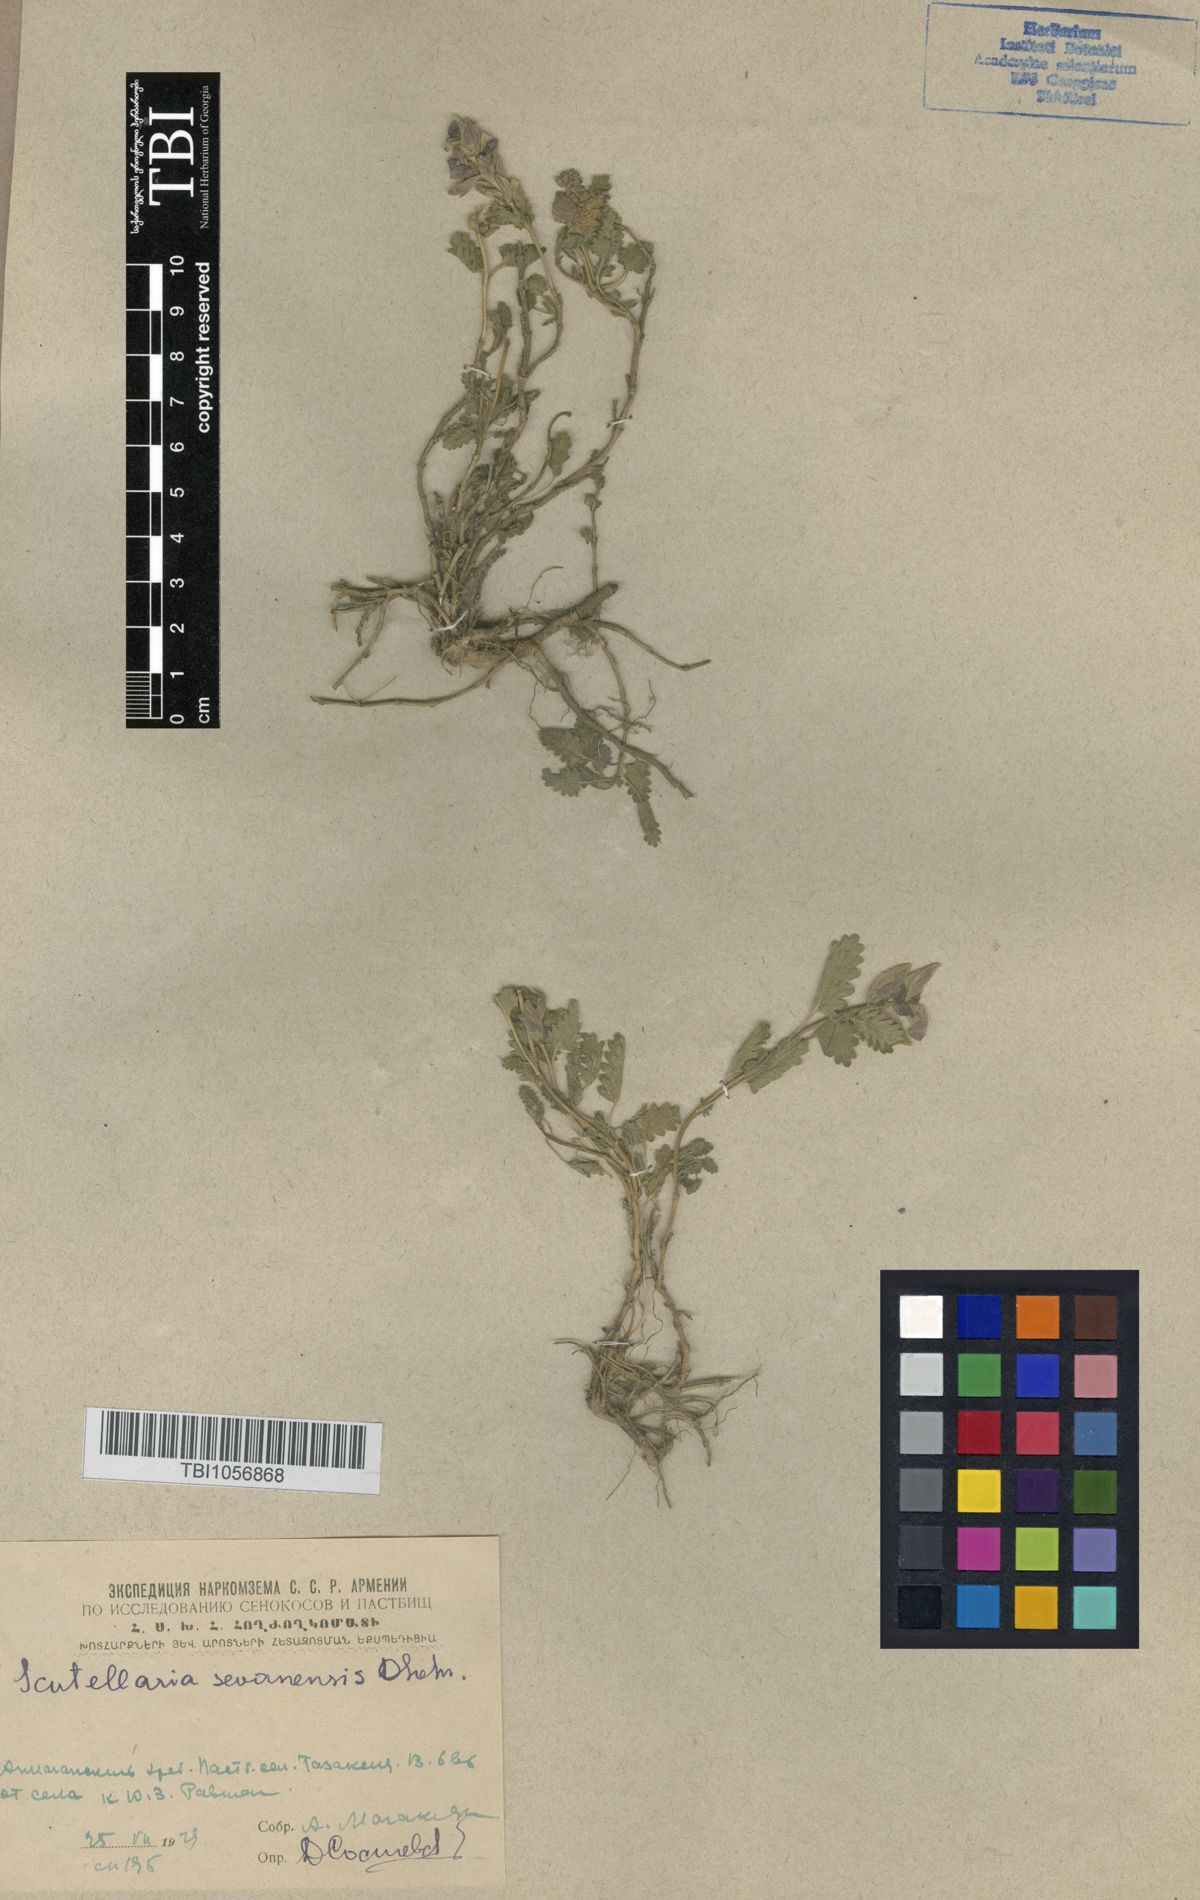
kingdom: Plantae
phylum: Tracheophyta
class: Magnoliopsida
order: Lamiales
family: Lamiaceae
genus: Scutellaria
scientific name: Scutellaria sevanensis
